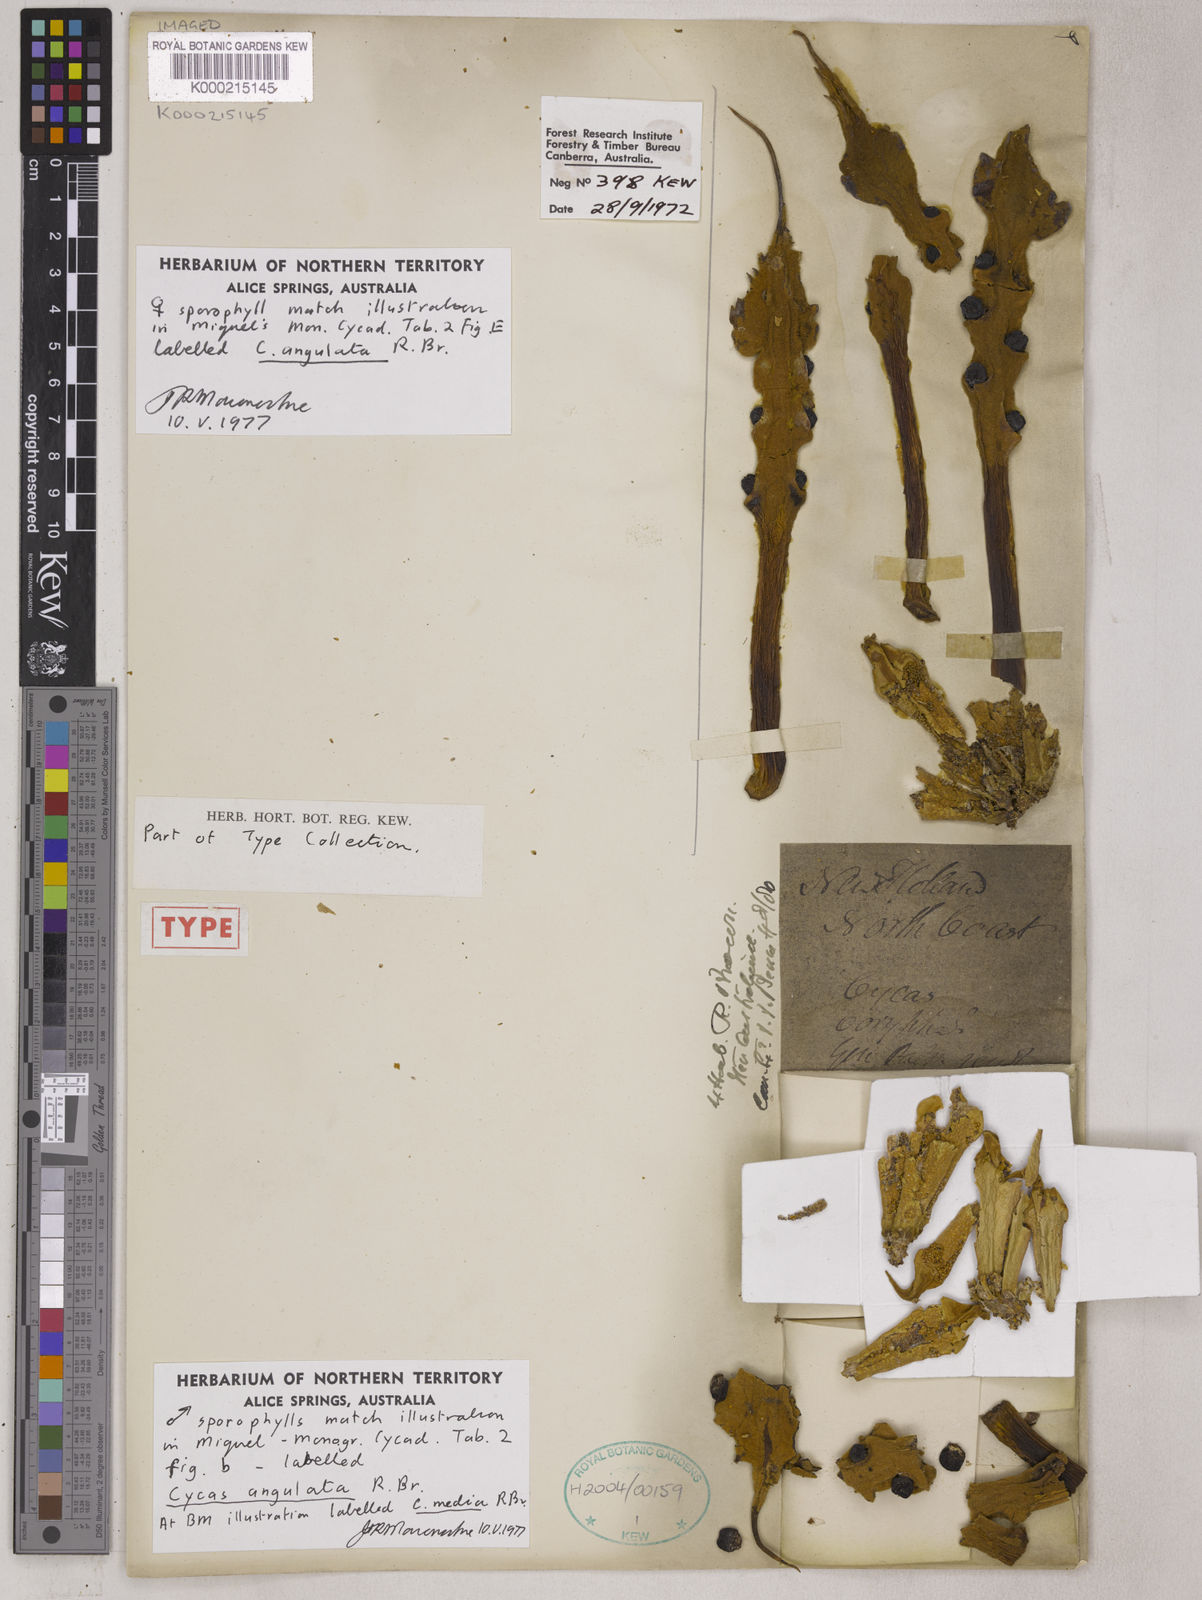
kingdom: Plantae
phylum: Tracheophyta
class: Cycadopsida
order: Cycadales
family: Cycadaceae
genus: Cycas
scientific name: Cycas angulata
